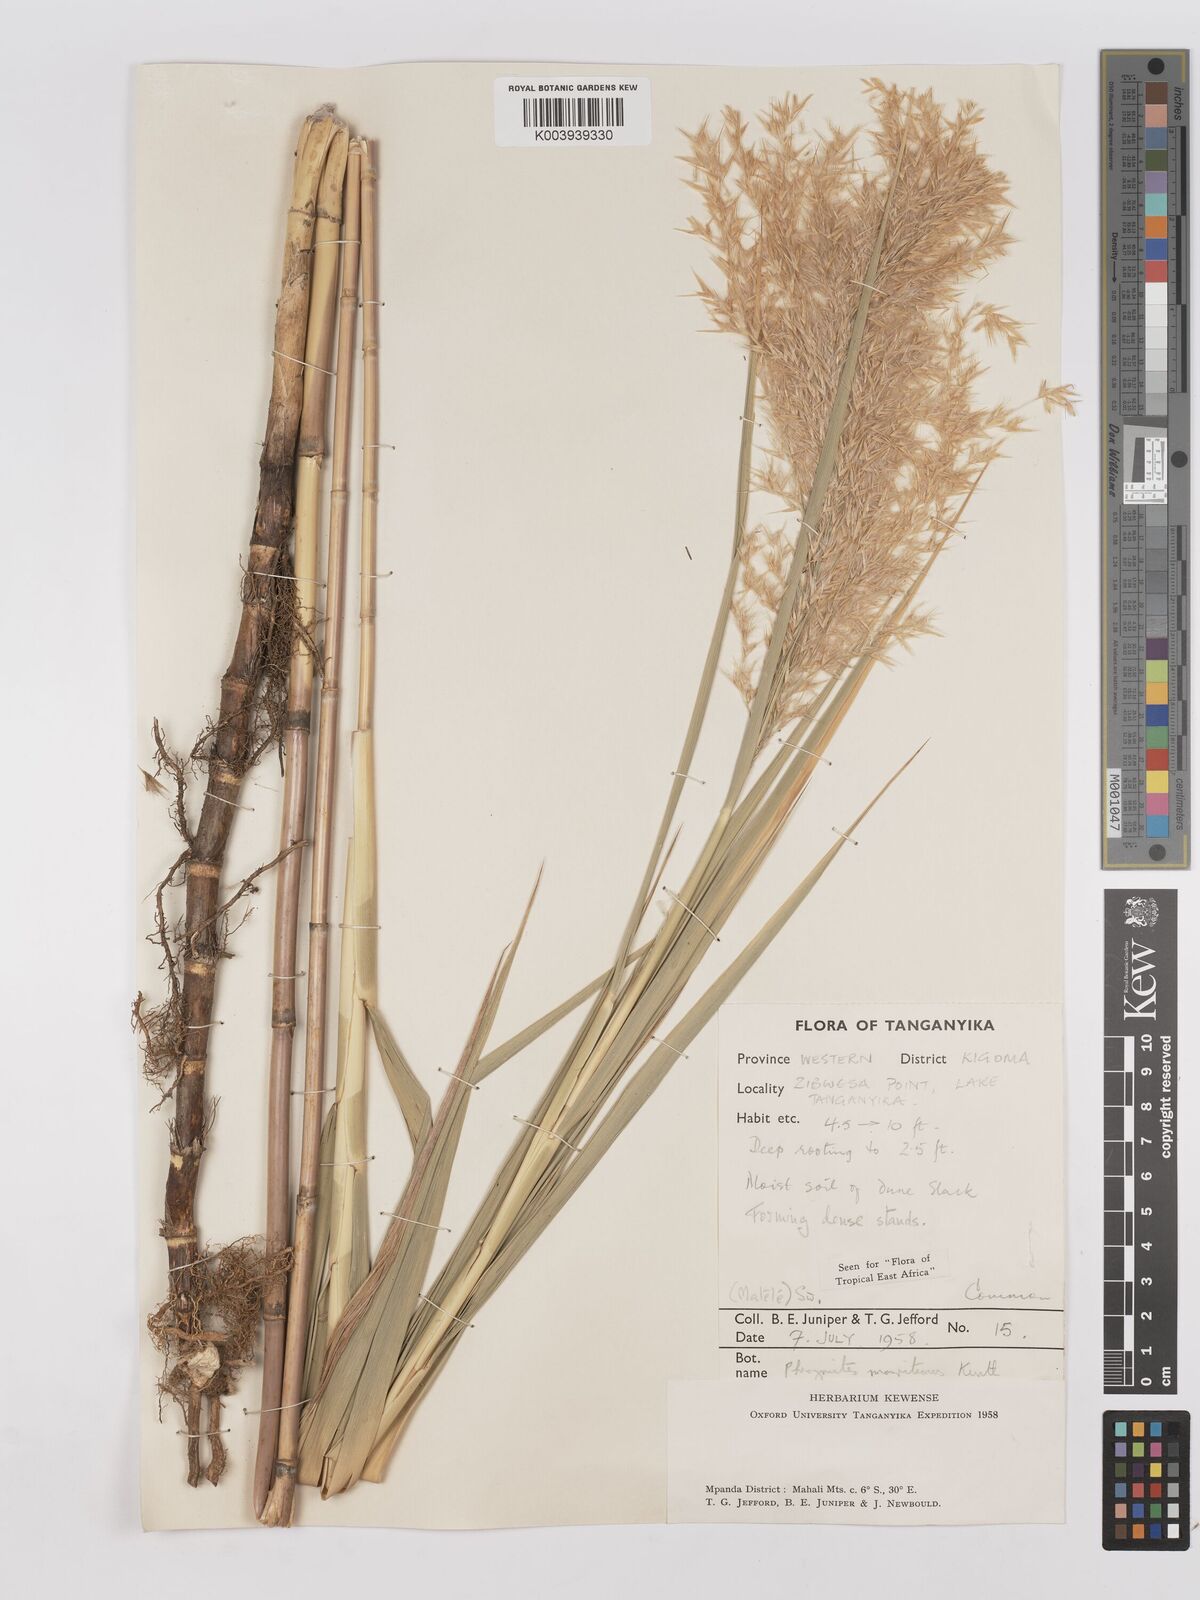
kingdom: Plantae
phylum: Tracheophyta
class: Liliopsida
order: Poales
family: Poaceae
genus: Phragmites
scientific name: Phragmites mauritianus
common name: Reed grass
